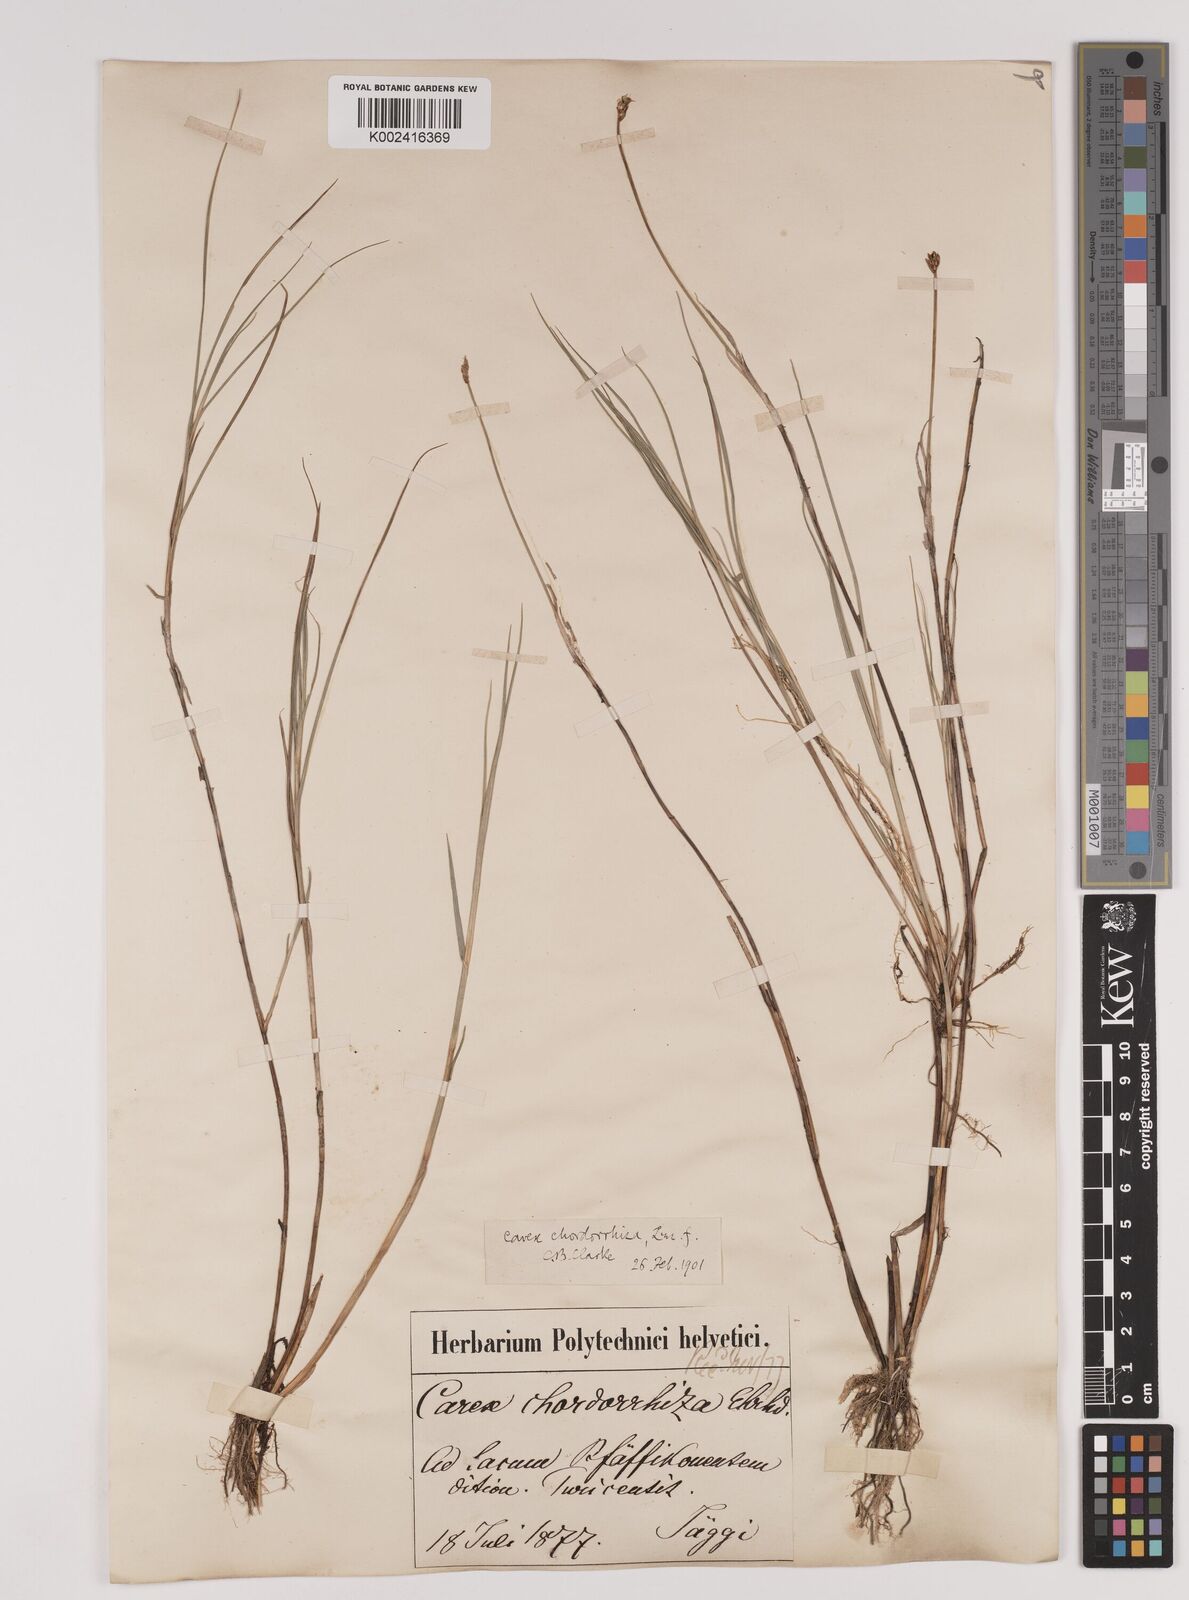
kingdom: Plantae
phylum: Tracheophyta
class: Liliopsida
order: Poales
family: Cyperaceae
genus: Carex
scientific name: Carex chordorrhiza
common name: String sedge
